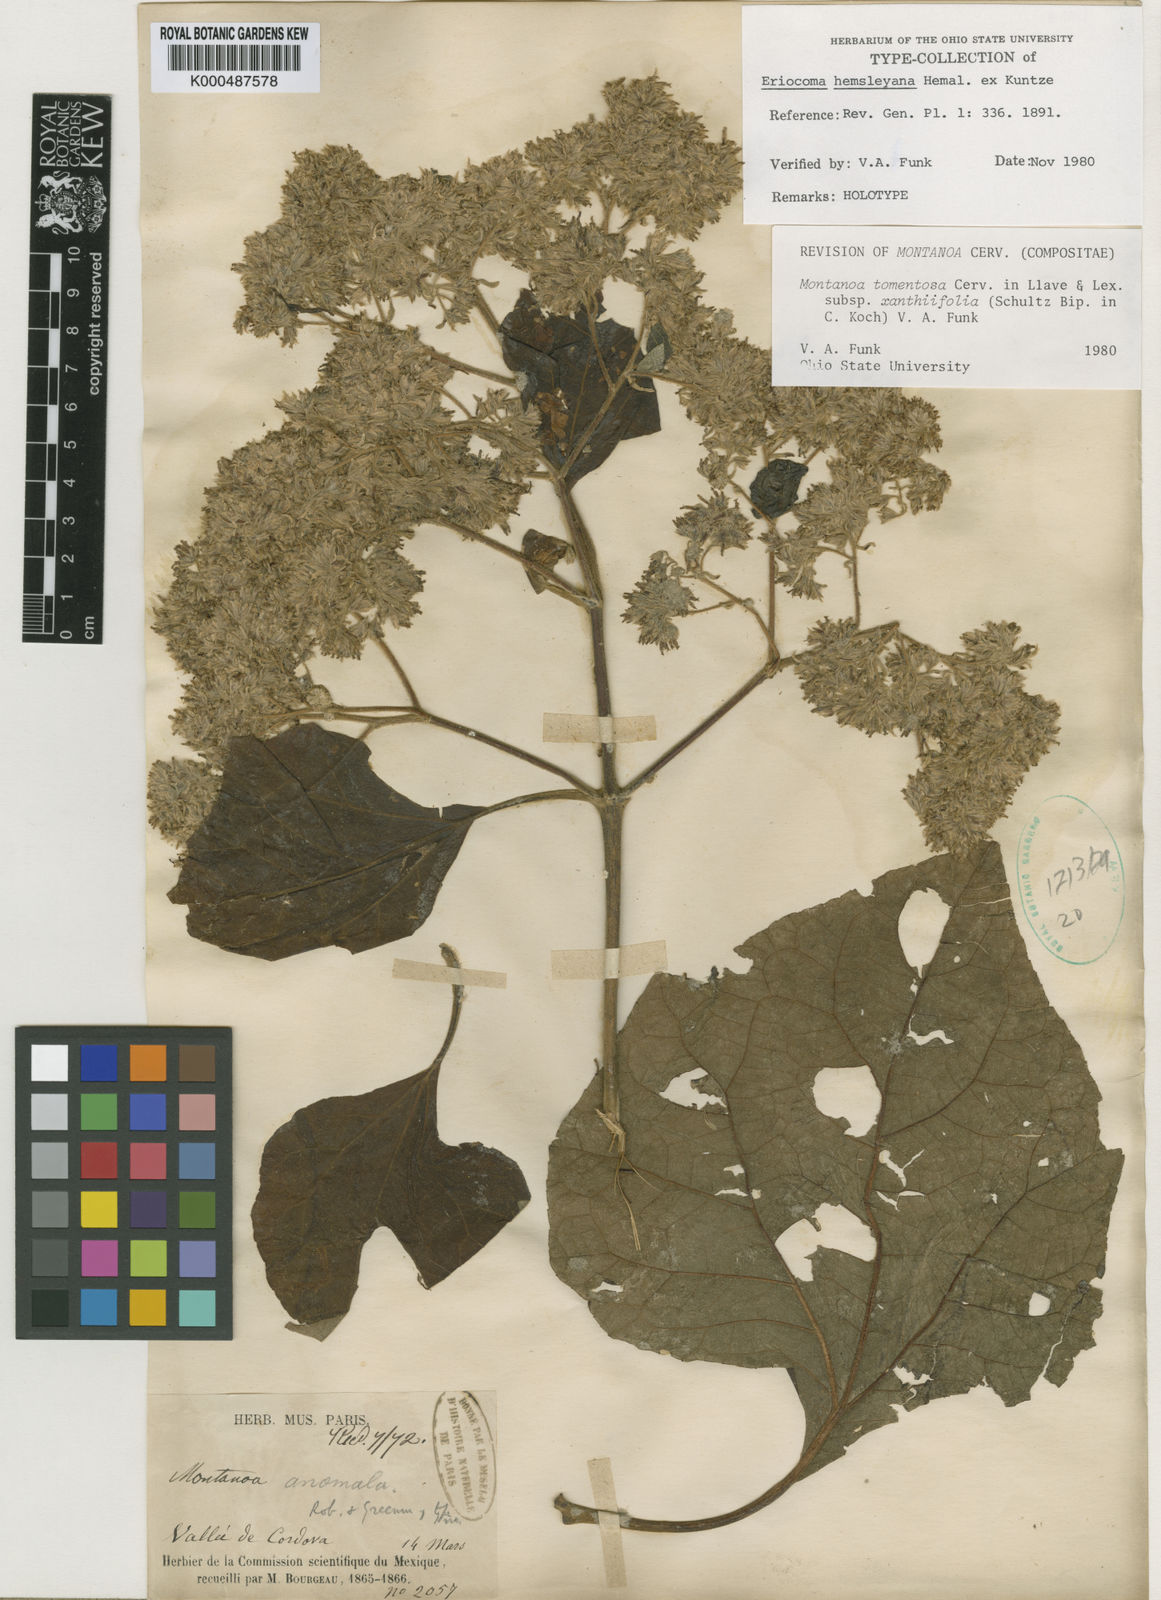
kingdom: Plantae
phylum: Tracheophyta
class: Magnoliopsida
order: Asterales
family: Asteraceae
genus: Montanoa
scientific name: Montanoa tomentosa
